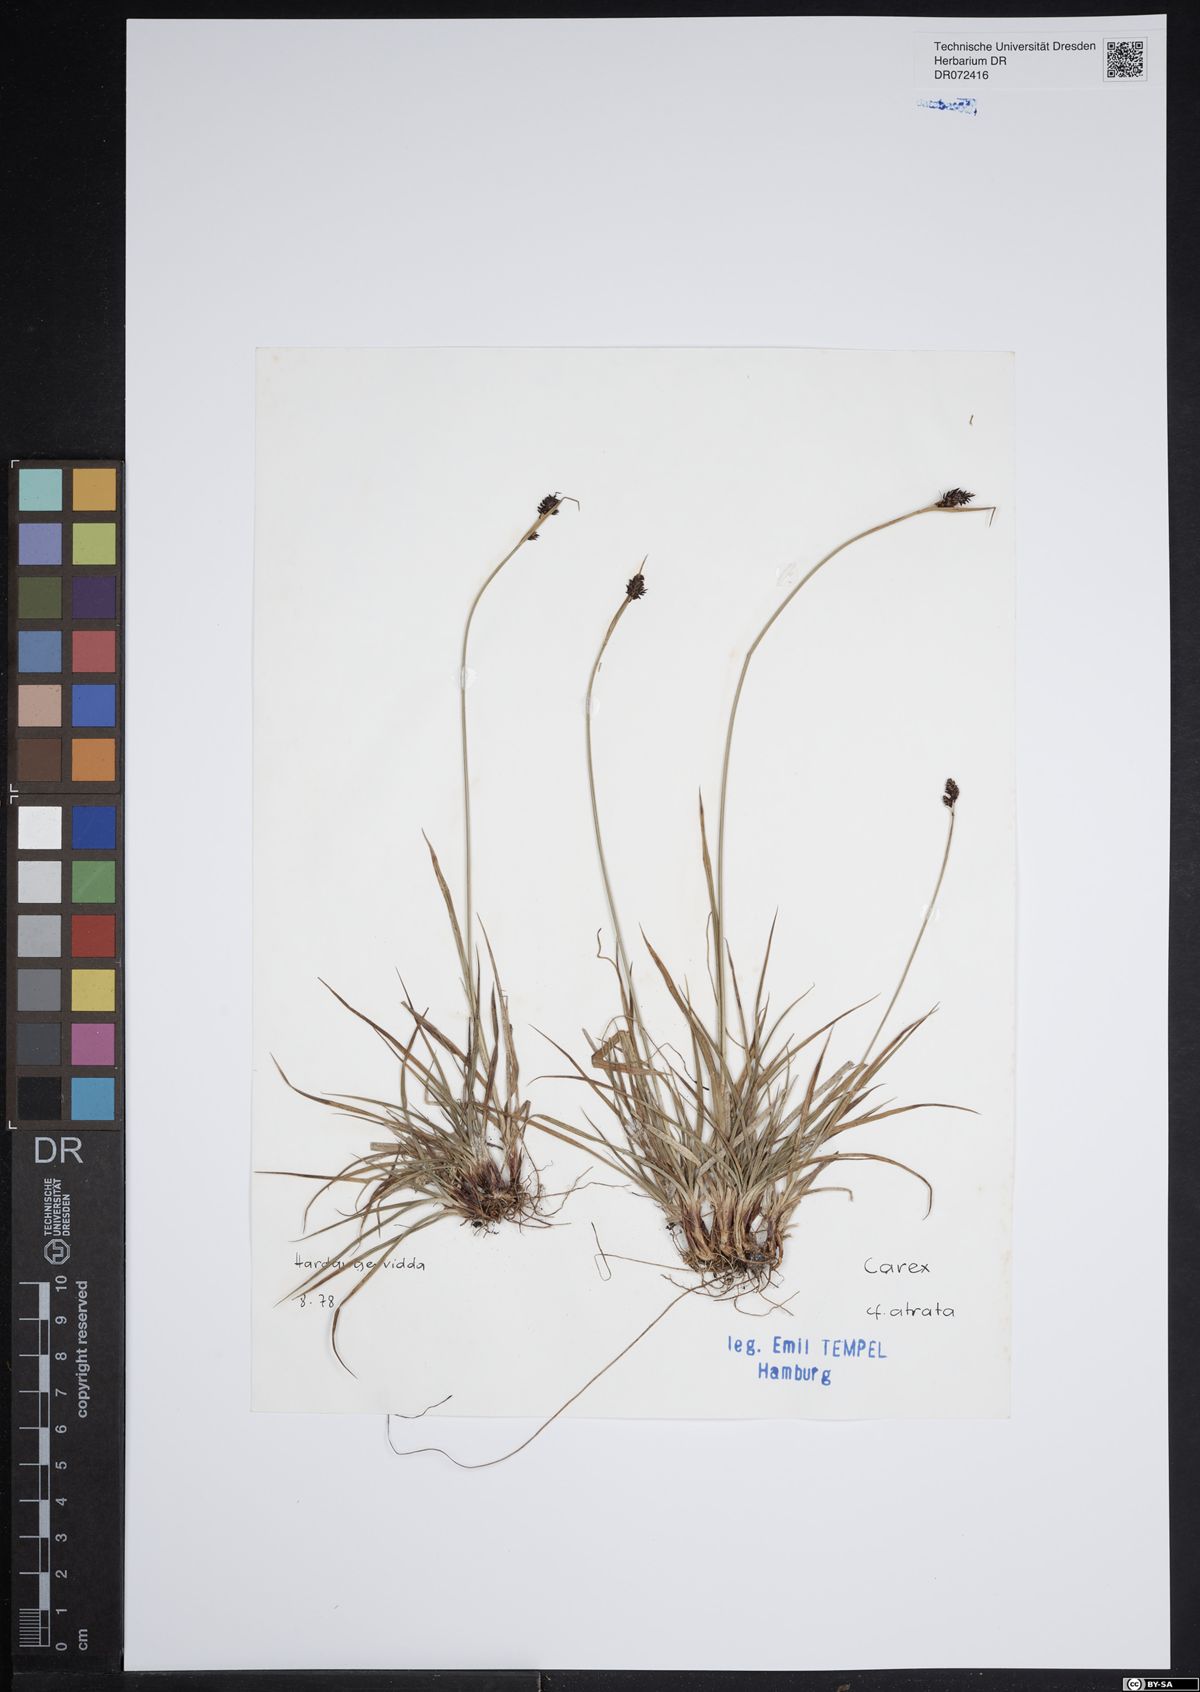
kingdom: Plantae
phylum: Tracheophyta
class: Liliopsida
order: Poales
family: Cyperaceae
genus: Carex
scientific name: Carex atrata
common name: Black alpine sedge
